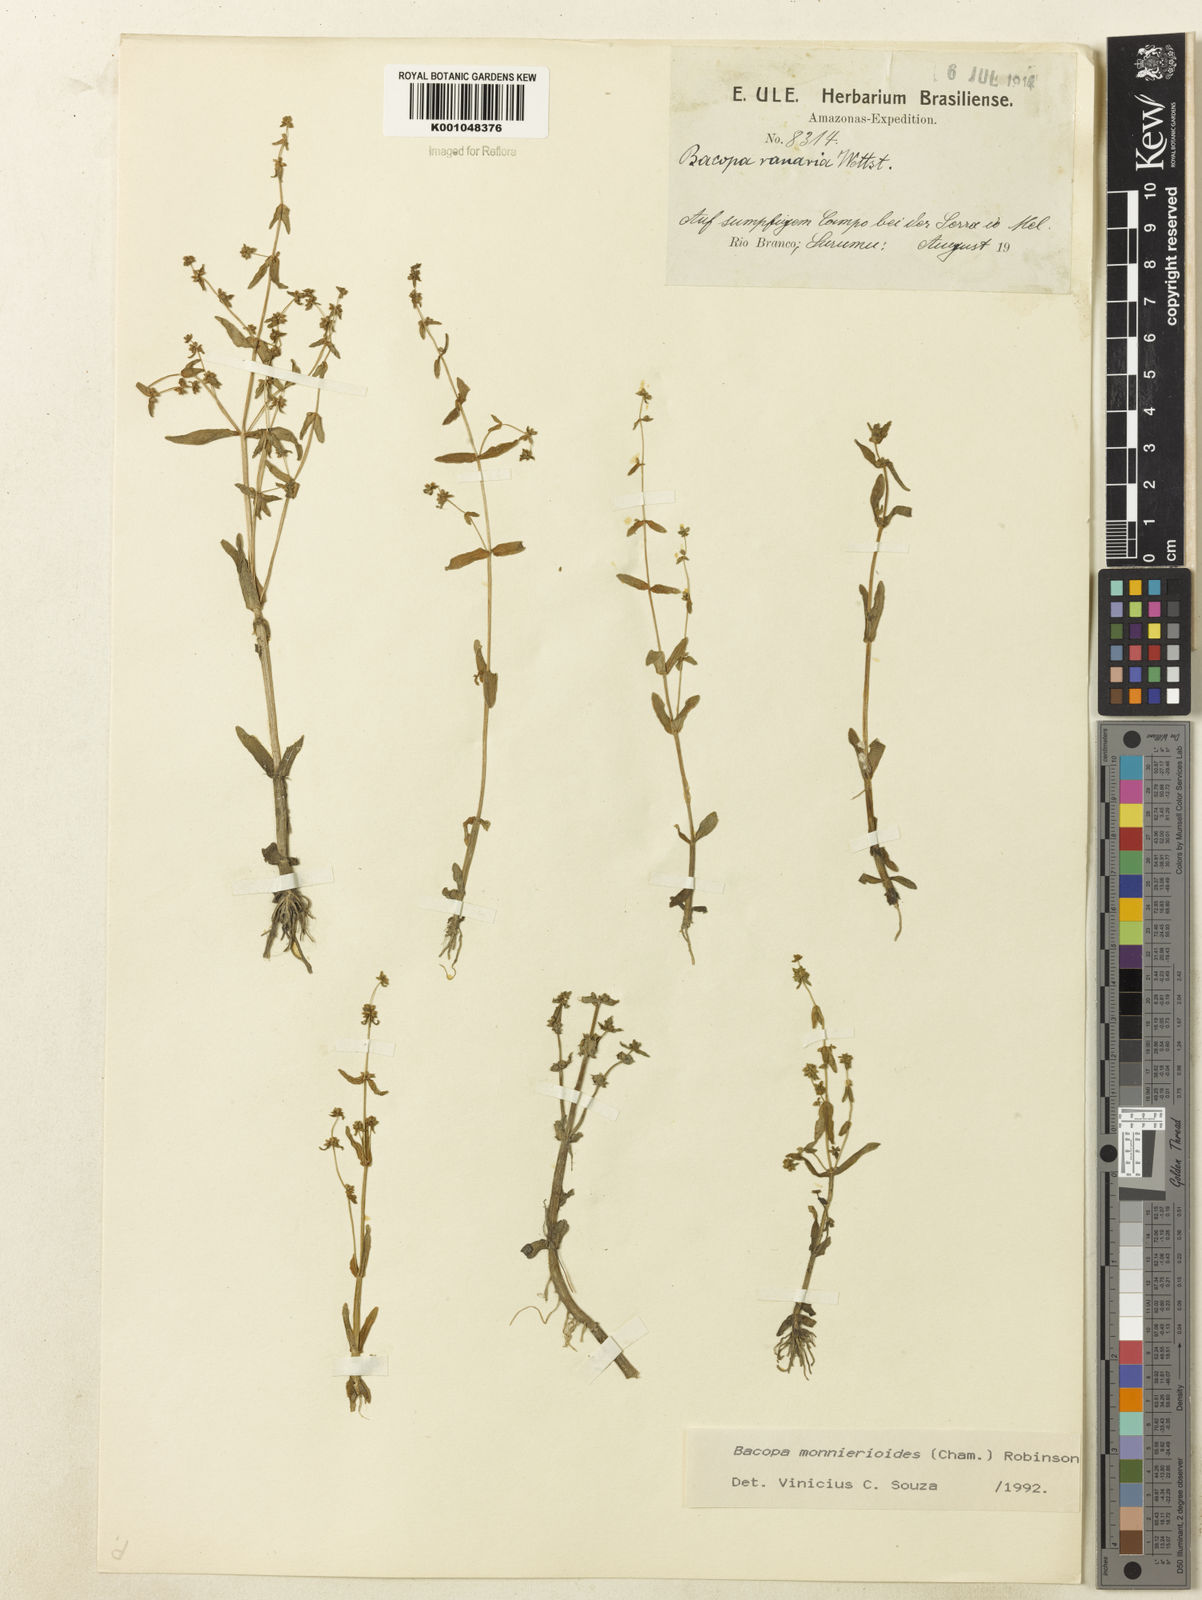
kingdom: Plantae
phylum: Tracheophyta
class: Magnoliopsida
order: Lamiales
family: Plantaginaceae
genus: Bacopa
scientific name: Bacopa monnierioides
